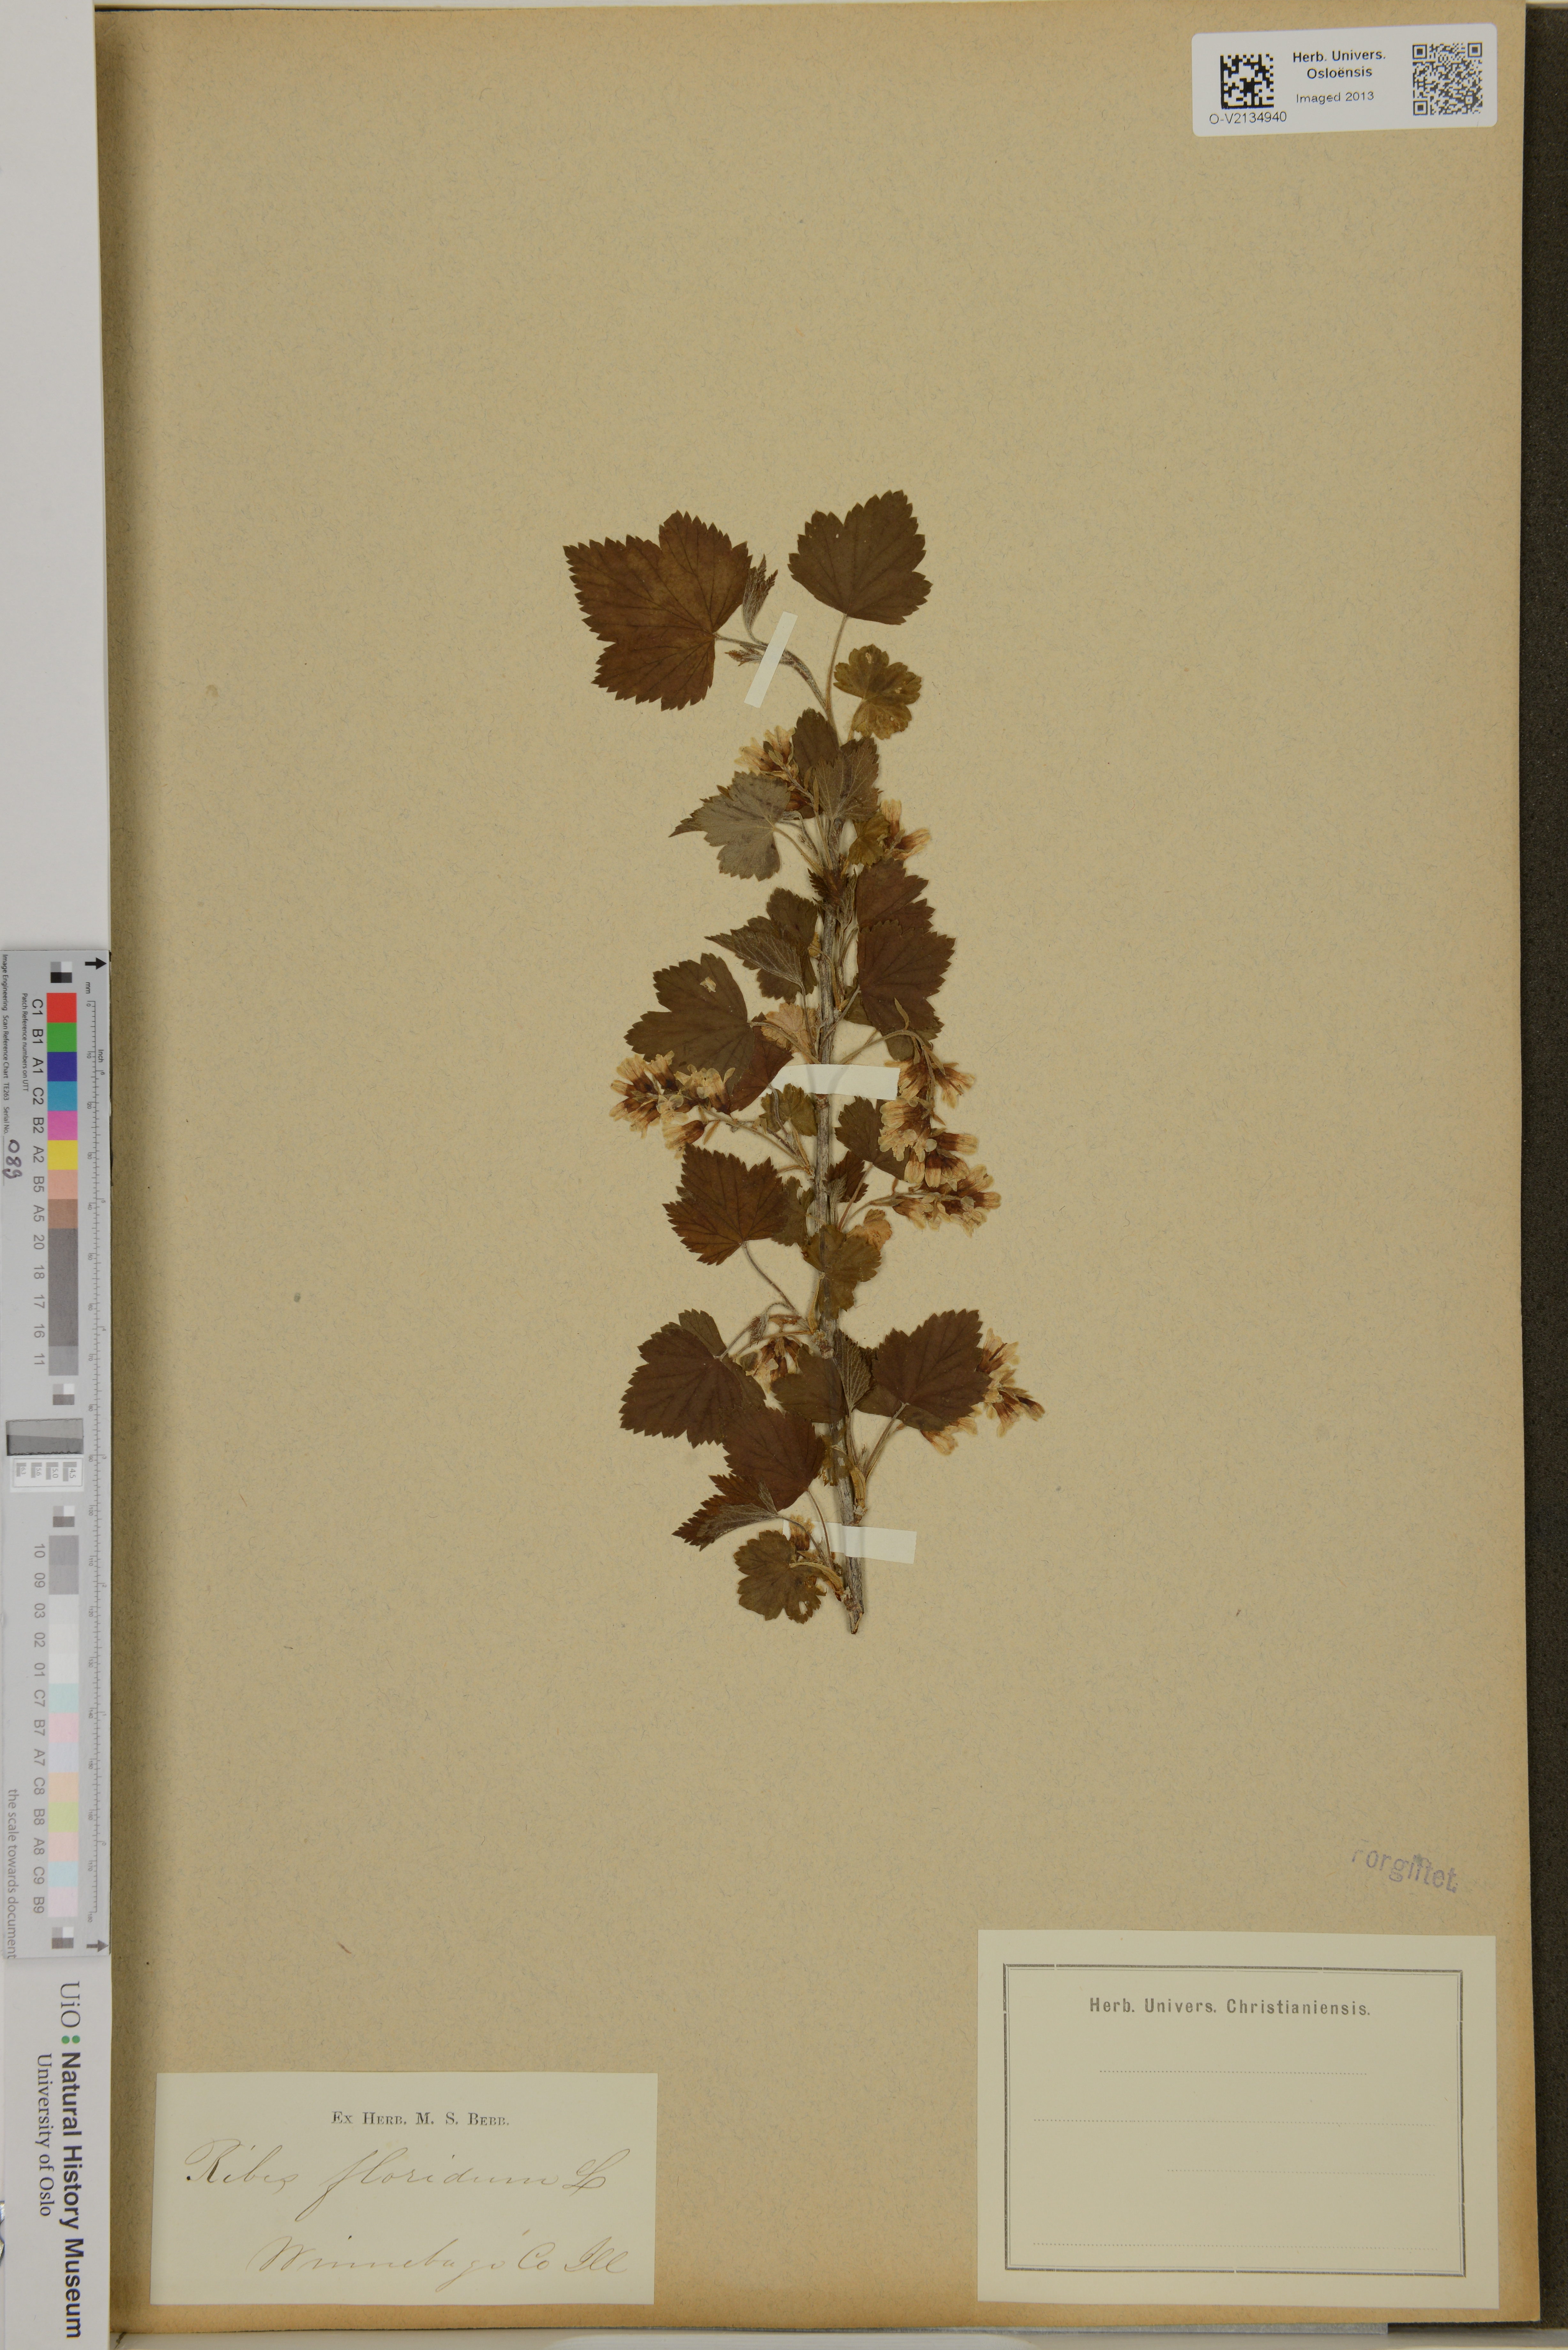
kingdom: Plantae
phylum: Tracheophyta
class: Magnoliopsida
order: Saxifragales
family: Grossulariaceae
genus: Ribes
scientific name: Ribes
